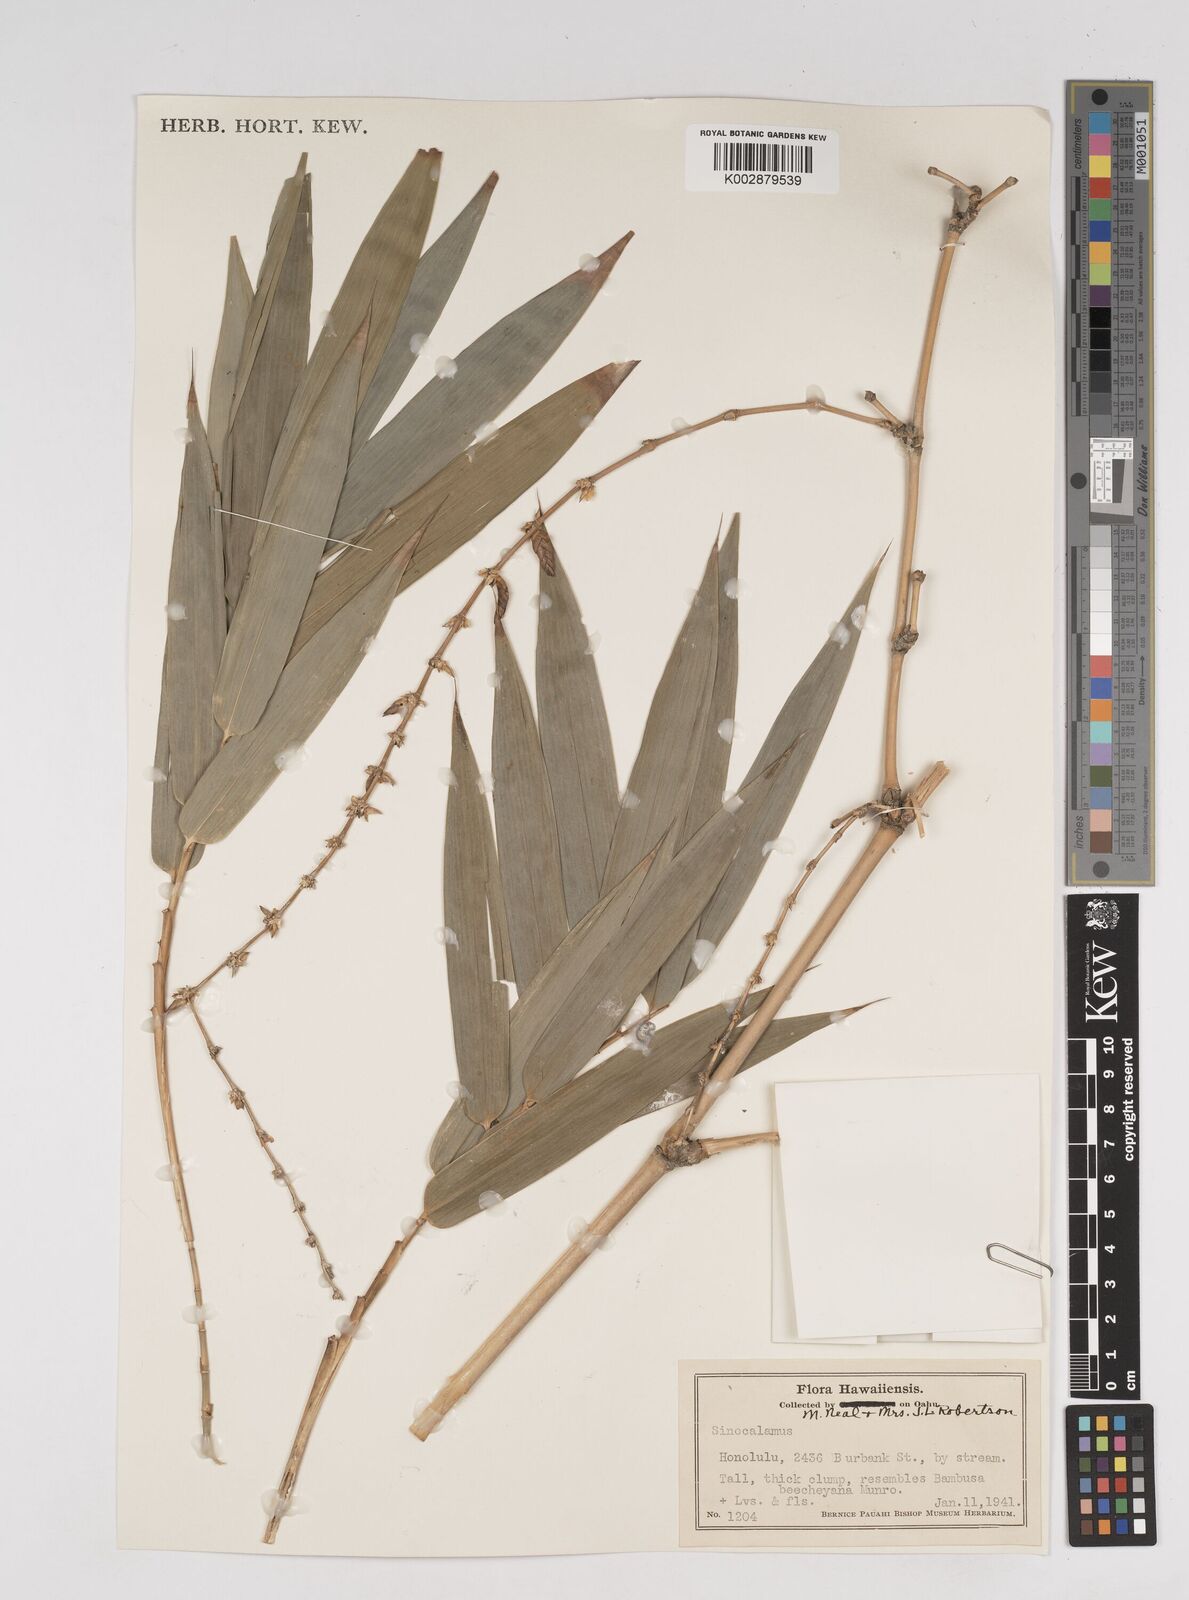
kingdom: Plantae
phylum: Tracheophyta
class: Liliopsida
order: Poales
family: Poaceae
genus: Dendrocalamus
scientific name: Dendrocalamus
